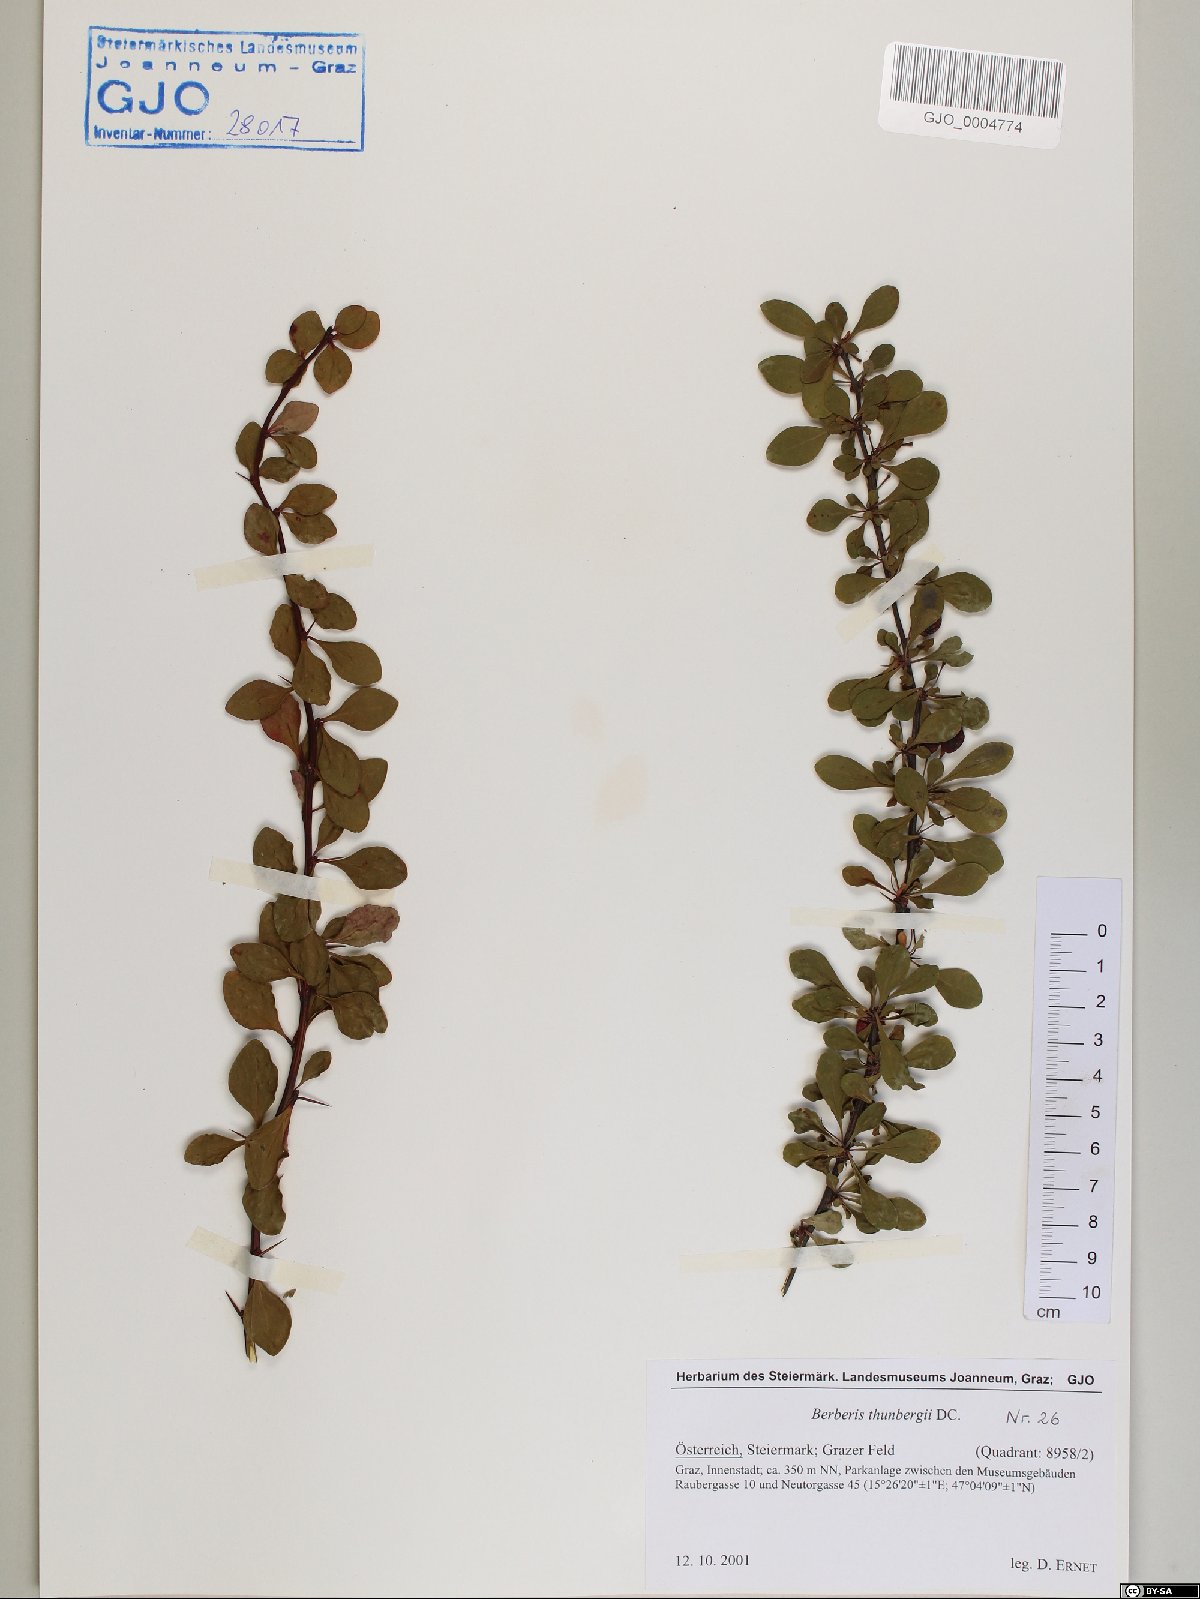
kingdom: Plantae
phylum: Tracheophyta
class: Magnoliopsida
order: Ranunculales
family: Berberidaceae
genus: Berberis
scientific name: Berberis thunbergii
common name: Japanese barberry
